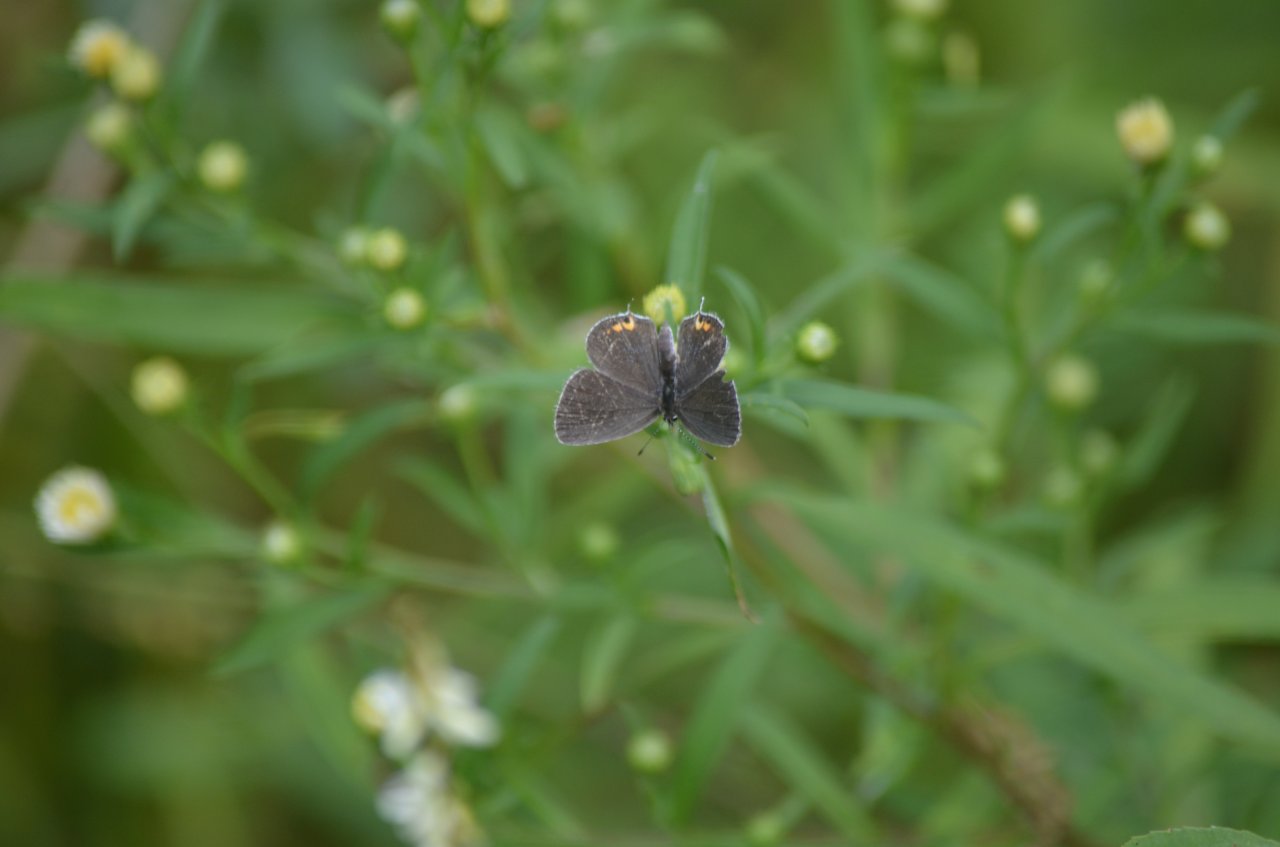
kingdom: Animalia
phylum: Arthropoda
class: Insecta
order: Lepidoptera
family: Lycaenidae
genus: Elkalyce
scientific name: Elkalyce comyntas
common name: Eastern Tailed-Blue
